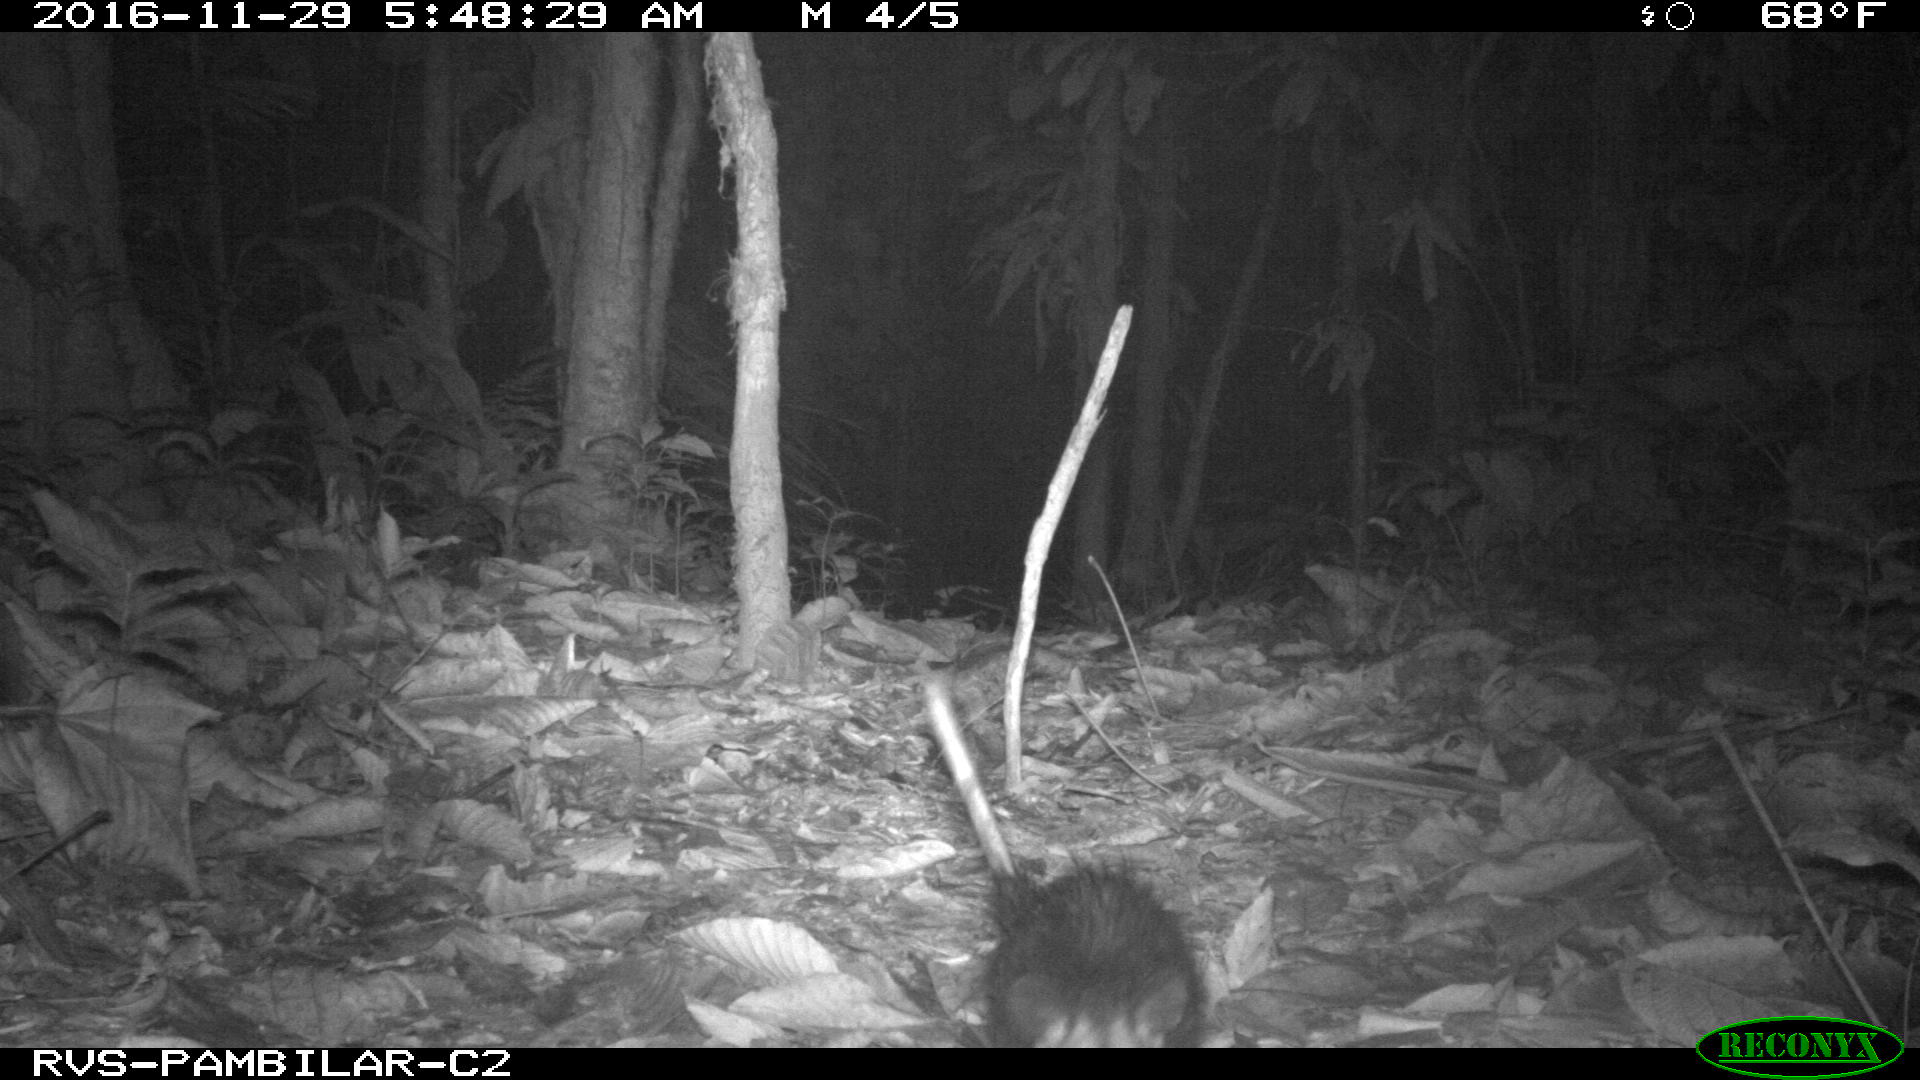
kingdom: Animalia
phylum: Chordata
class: Mammalia
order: Didelphimorphia
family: Didelphidae
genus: Didelphis
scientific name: Didelphis marsupialis
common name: Common opossum
